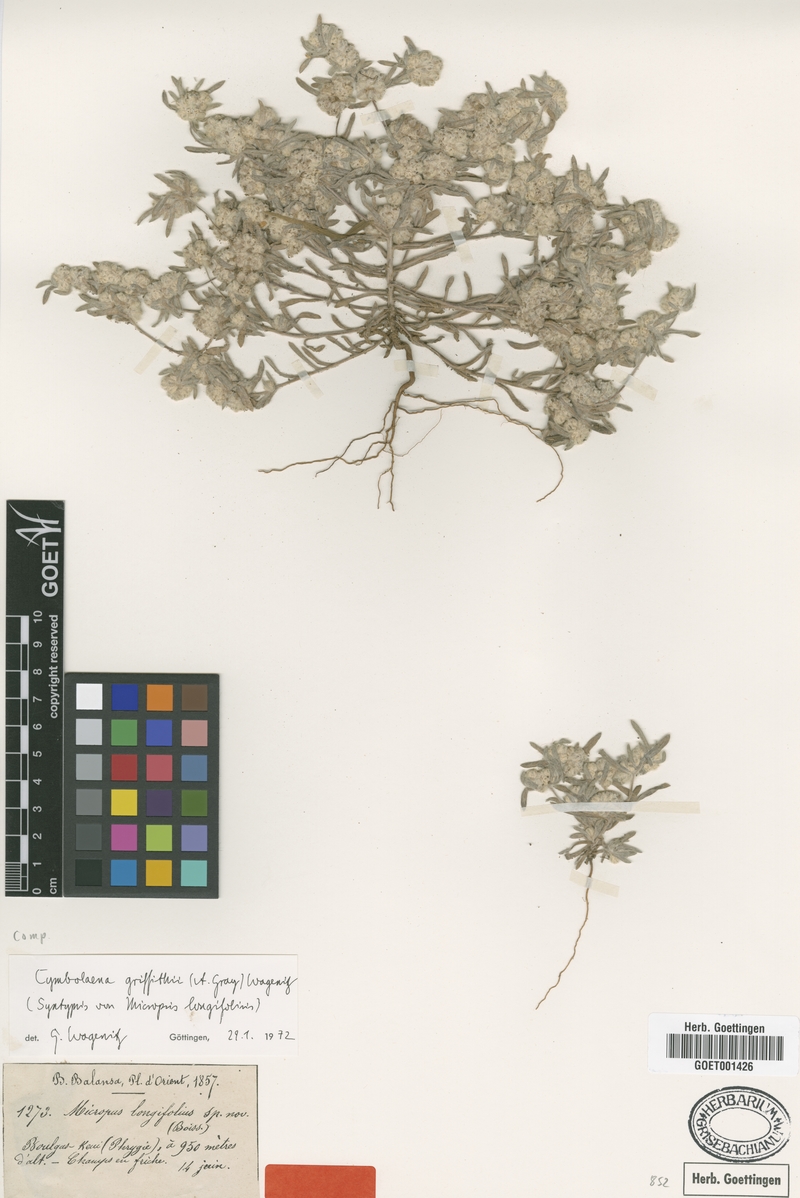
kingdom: Plantae
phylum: Tracheophyta
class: Magnoliopsida
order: Asterales
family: Asteraceae
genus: Filago
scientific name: Filago griffithii
